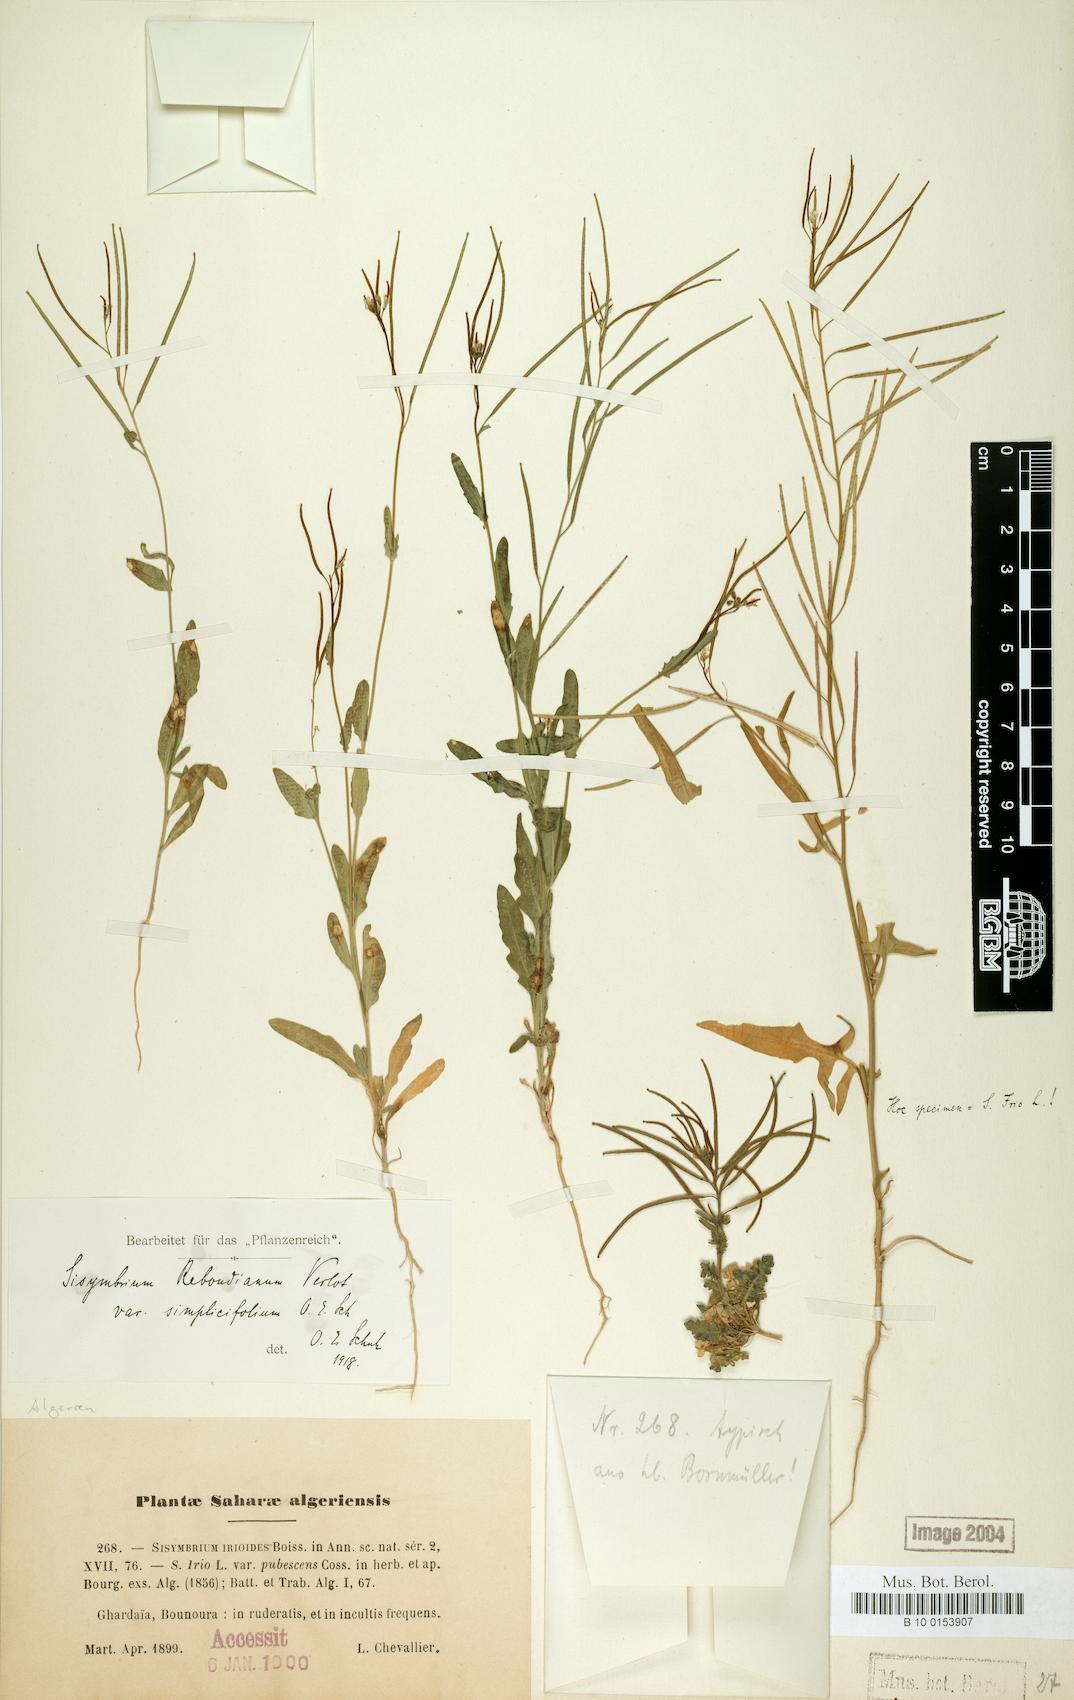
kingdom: Plantae
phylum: Tracheophyta
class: Magnoliopsida
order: Brassicales
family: Brassicaceae
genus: Sisymbrium
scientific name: Sisymbrium reboudianum
